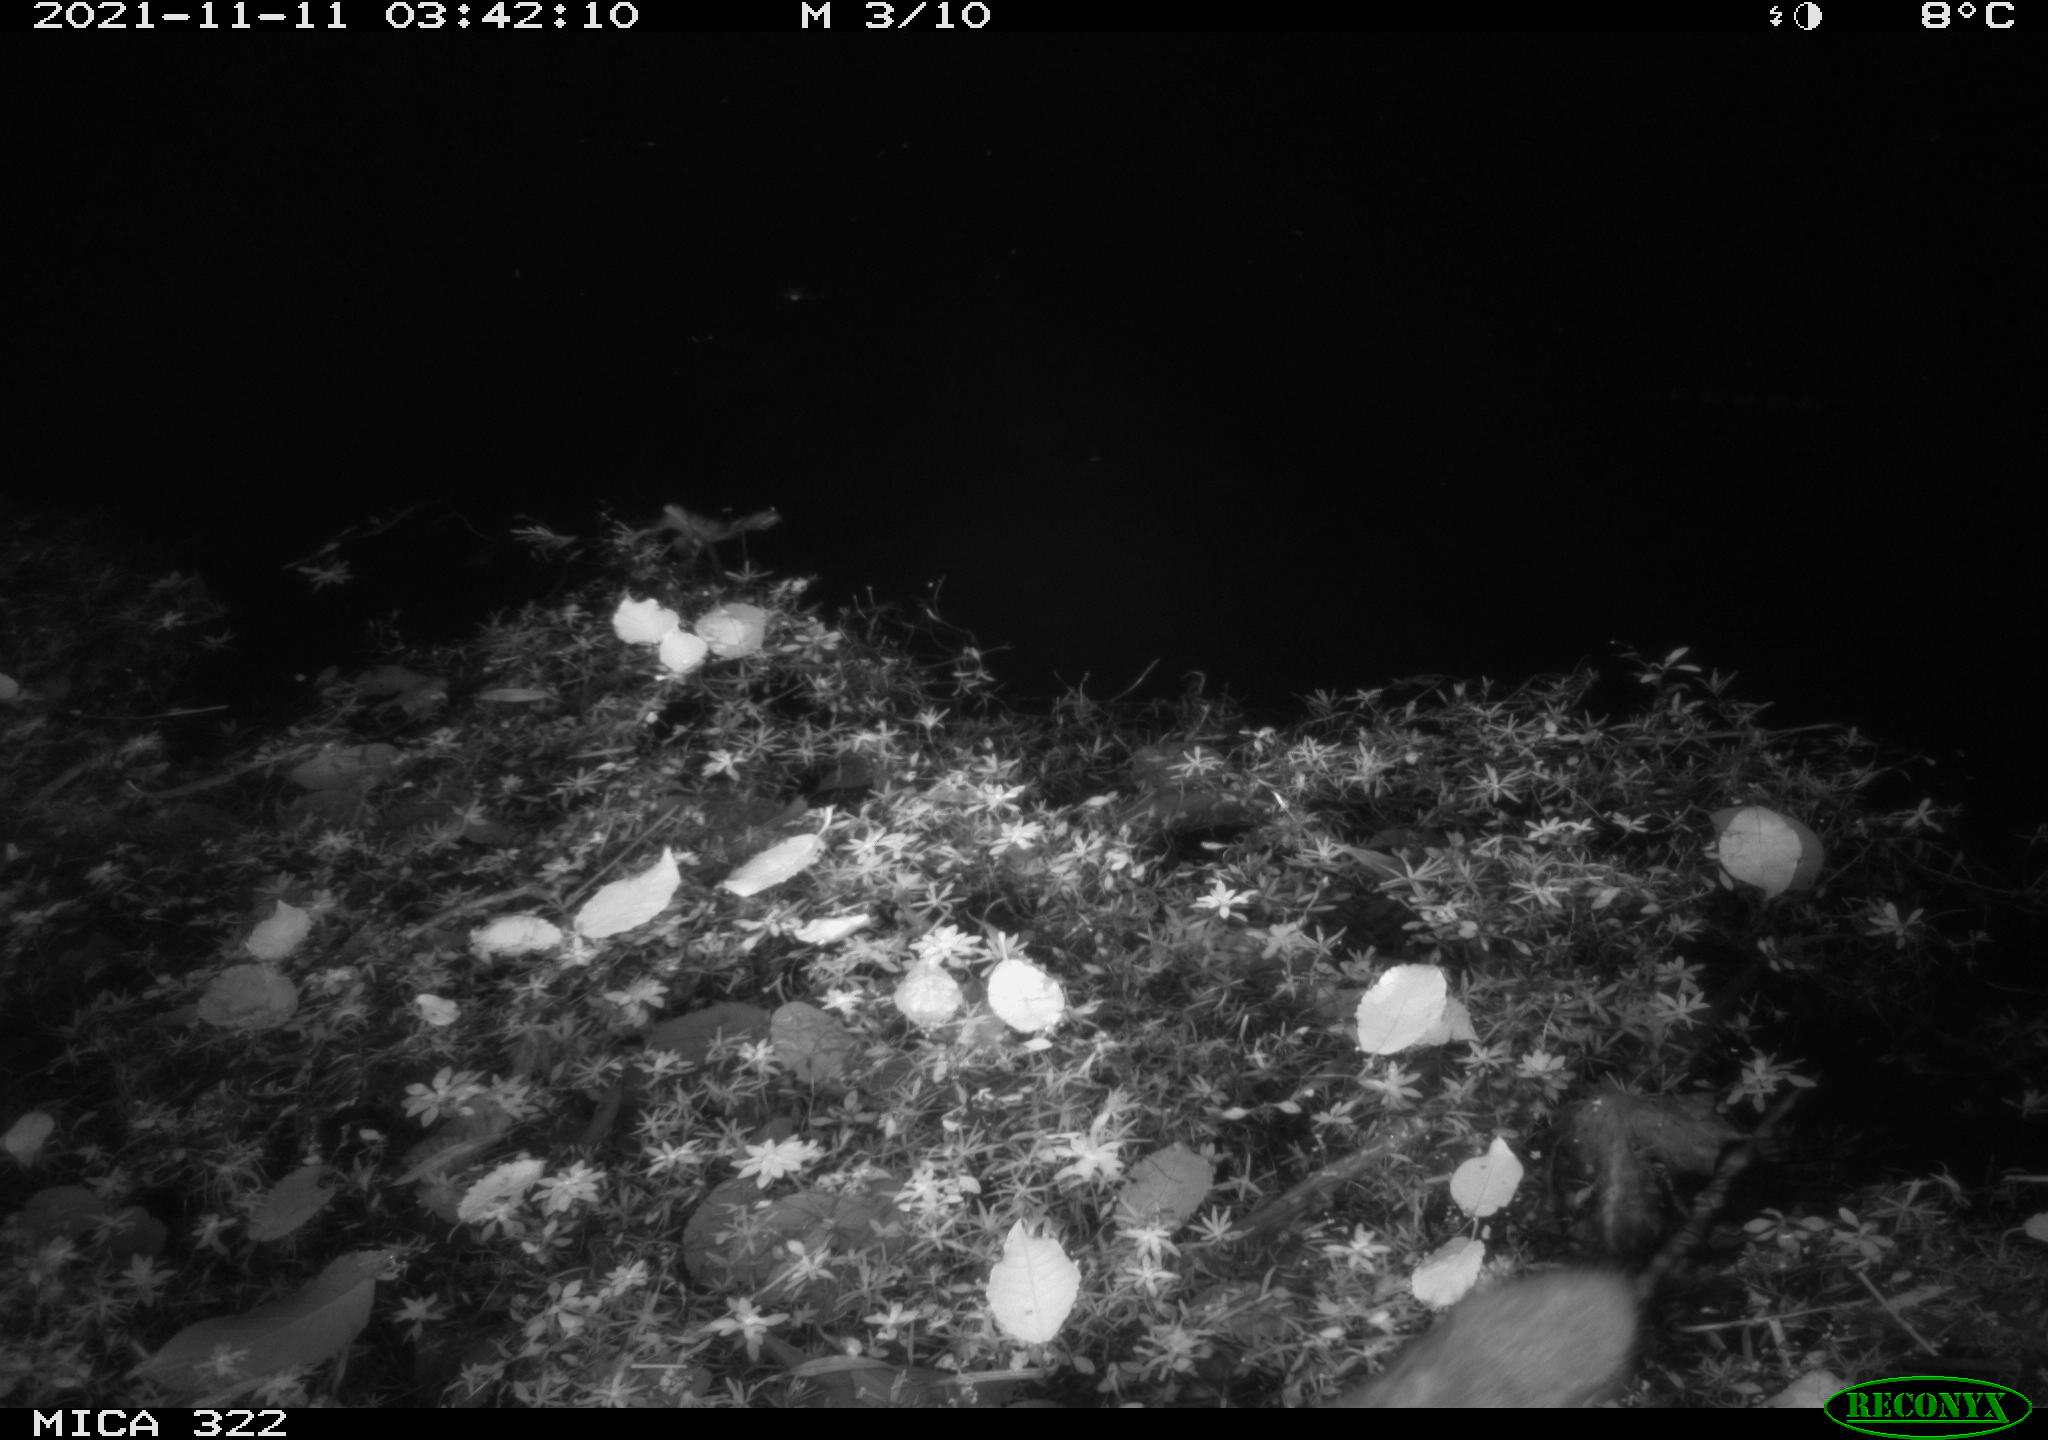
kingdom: Animalia
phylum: Chordata
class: Mammalia
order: Rodentia
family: Muridae
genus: Rattus
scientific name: Rattus norvegicus
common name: Brown rat
